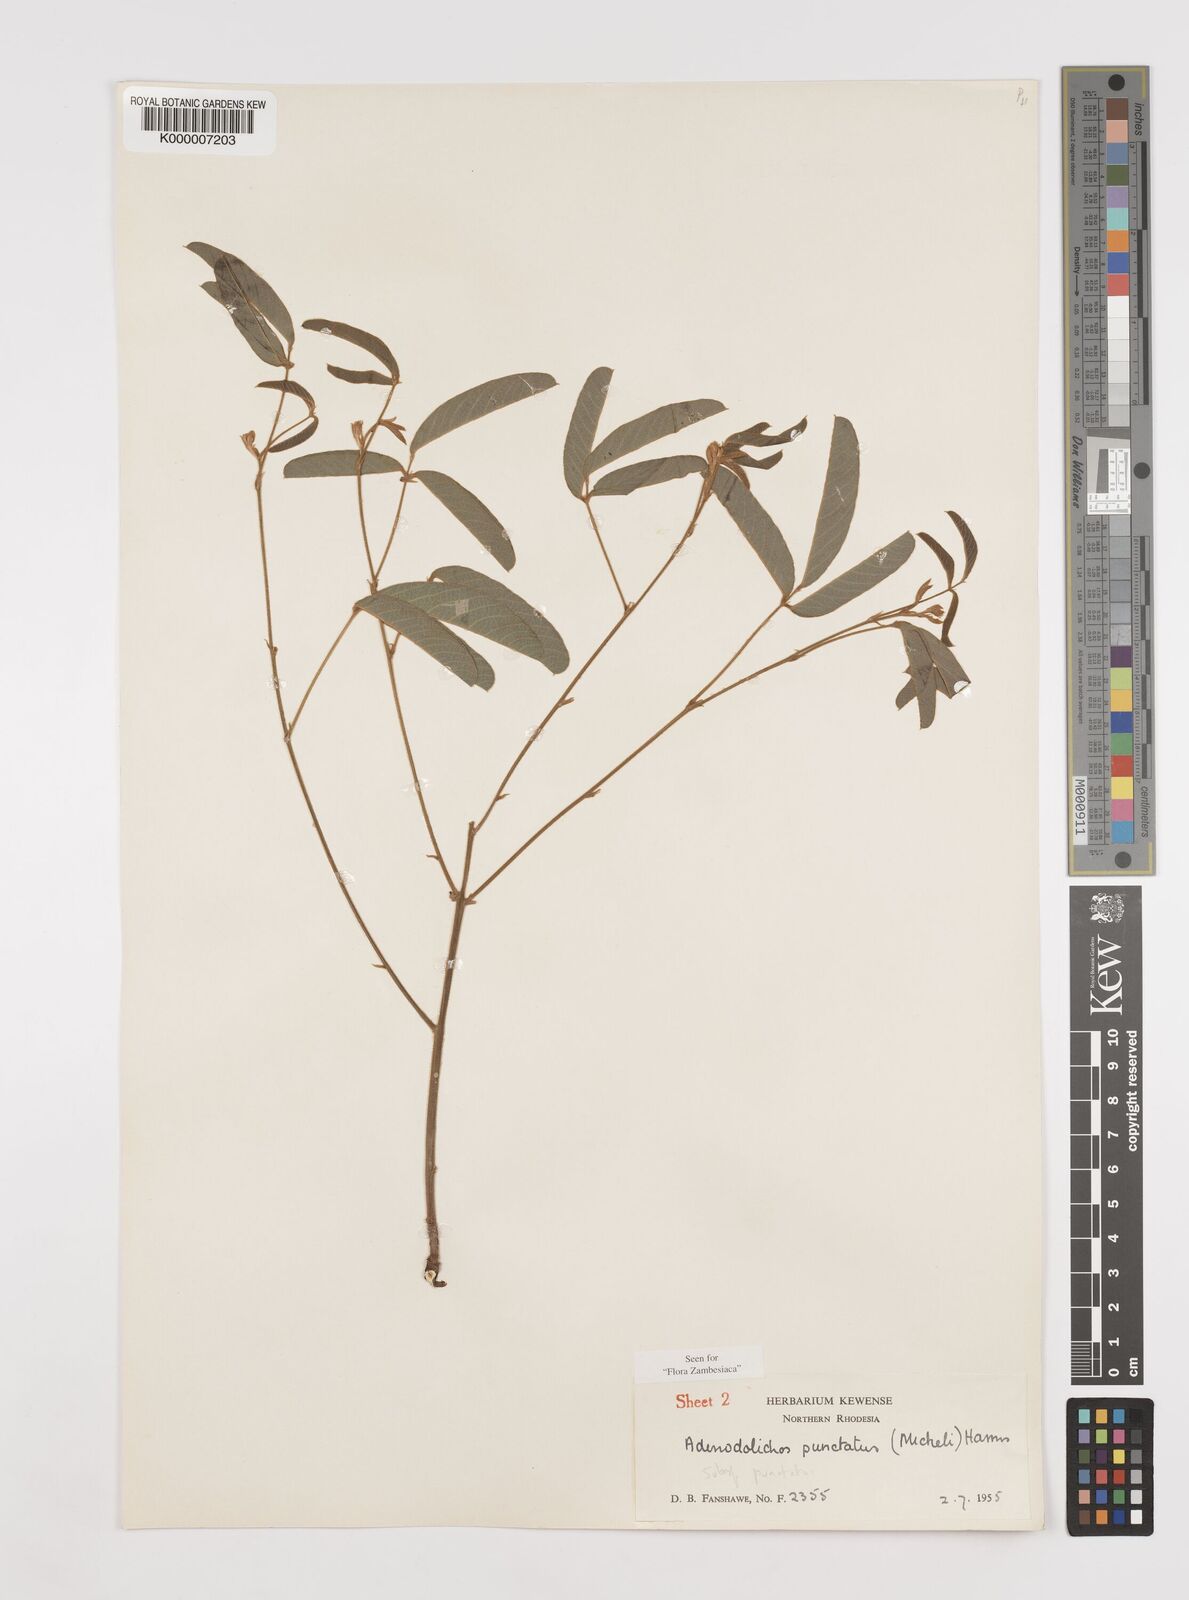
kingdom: Plantae
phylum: Tracheophyta
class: Magnoliopsida
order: Fabales
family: Fabaceae
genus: Adenodolichos
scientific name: Adenodolichos punctatus
